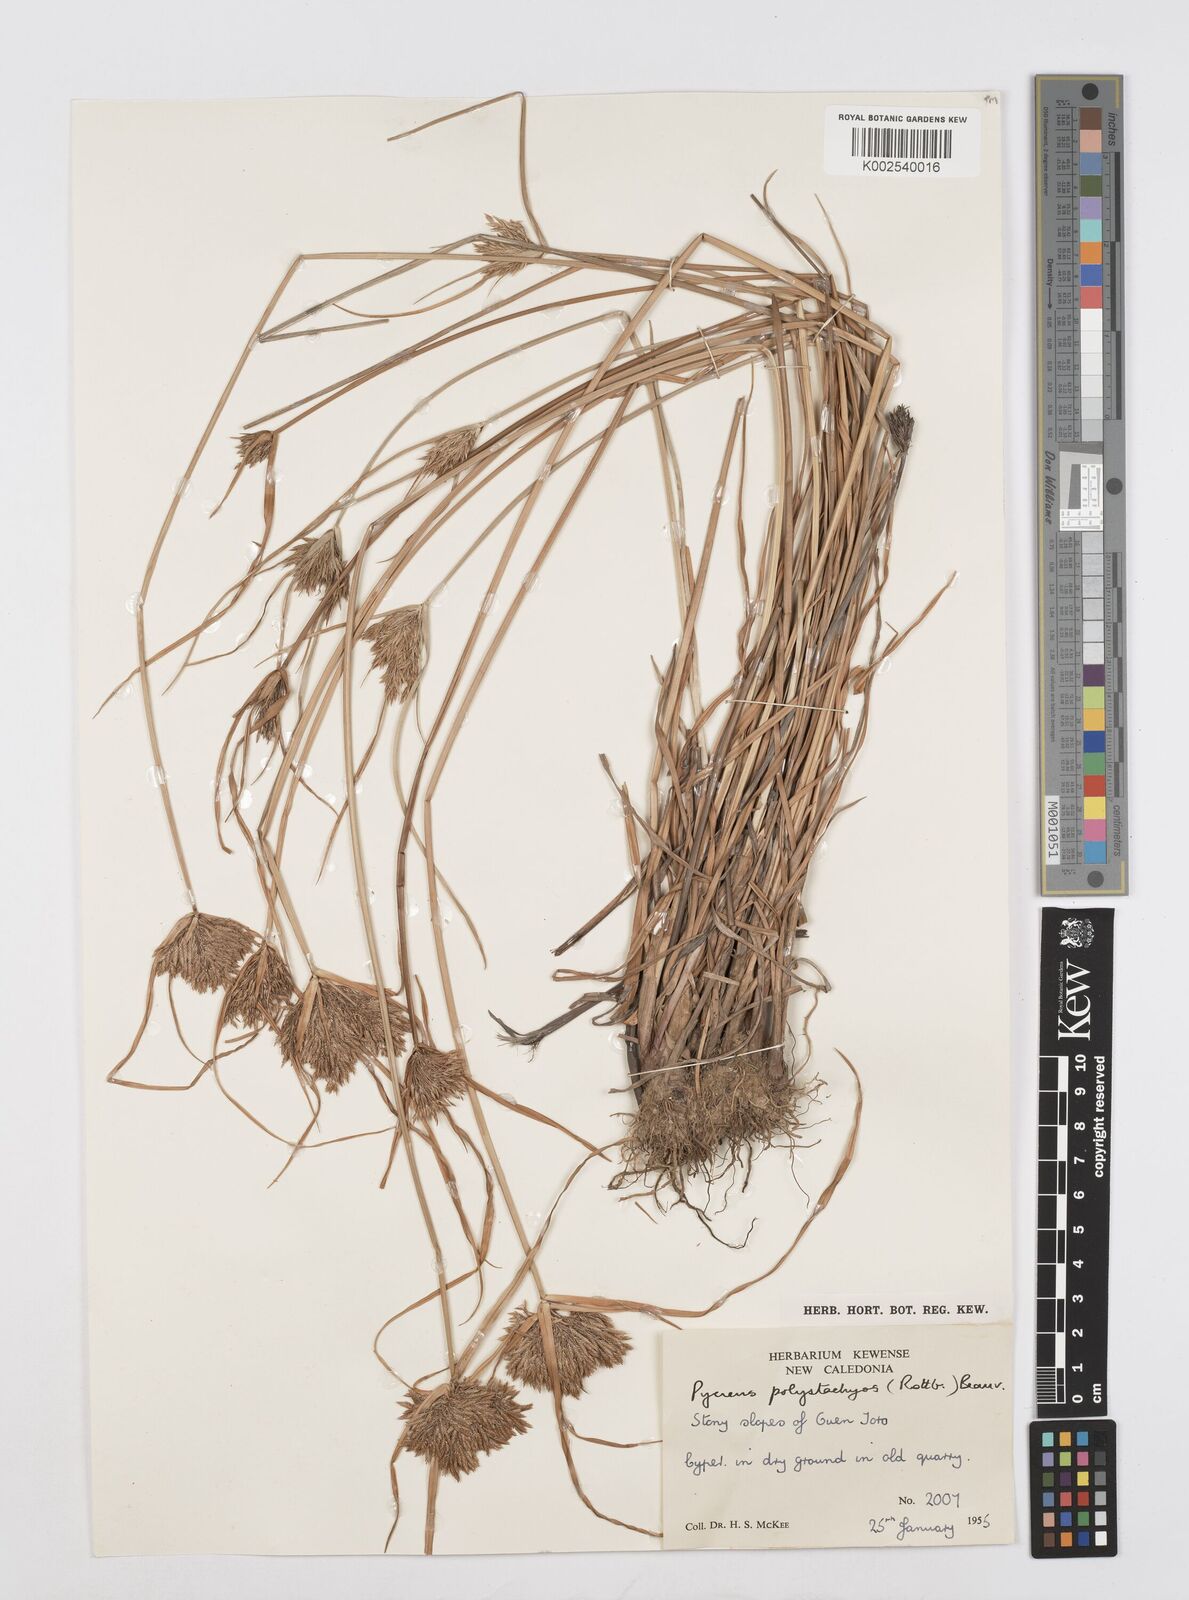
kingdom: Plantae
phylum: Tracheophyta
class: Liliopsida
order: Poales
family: Cyperaceae
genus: Cyperus
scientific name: Cyperus polystachyos
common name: Bunchy flat sedge
